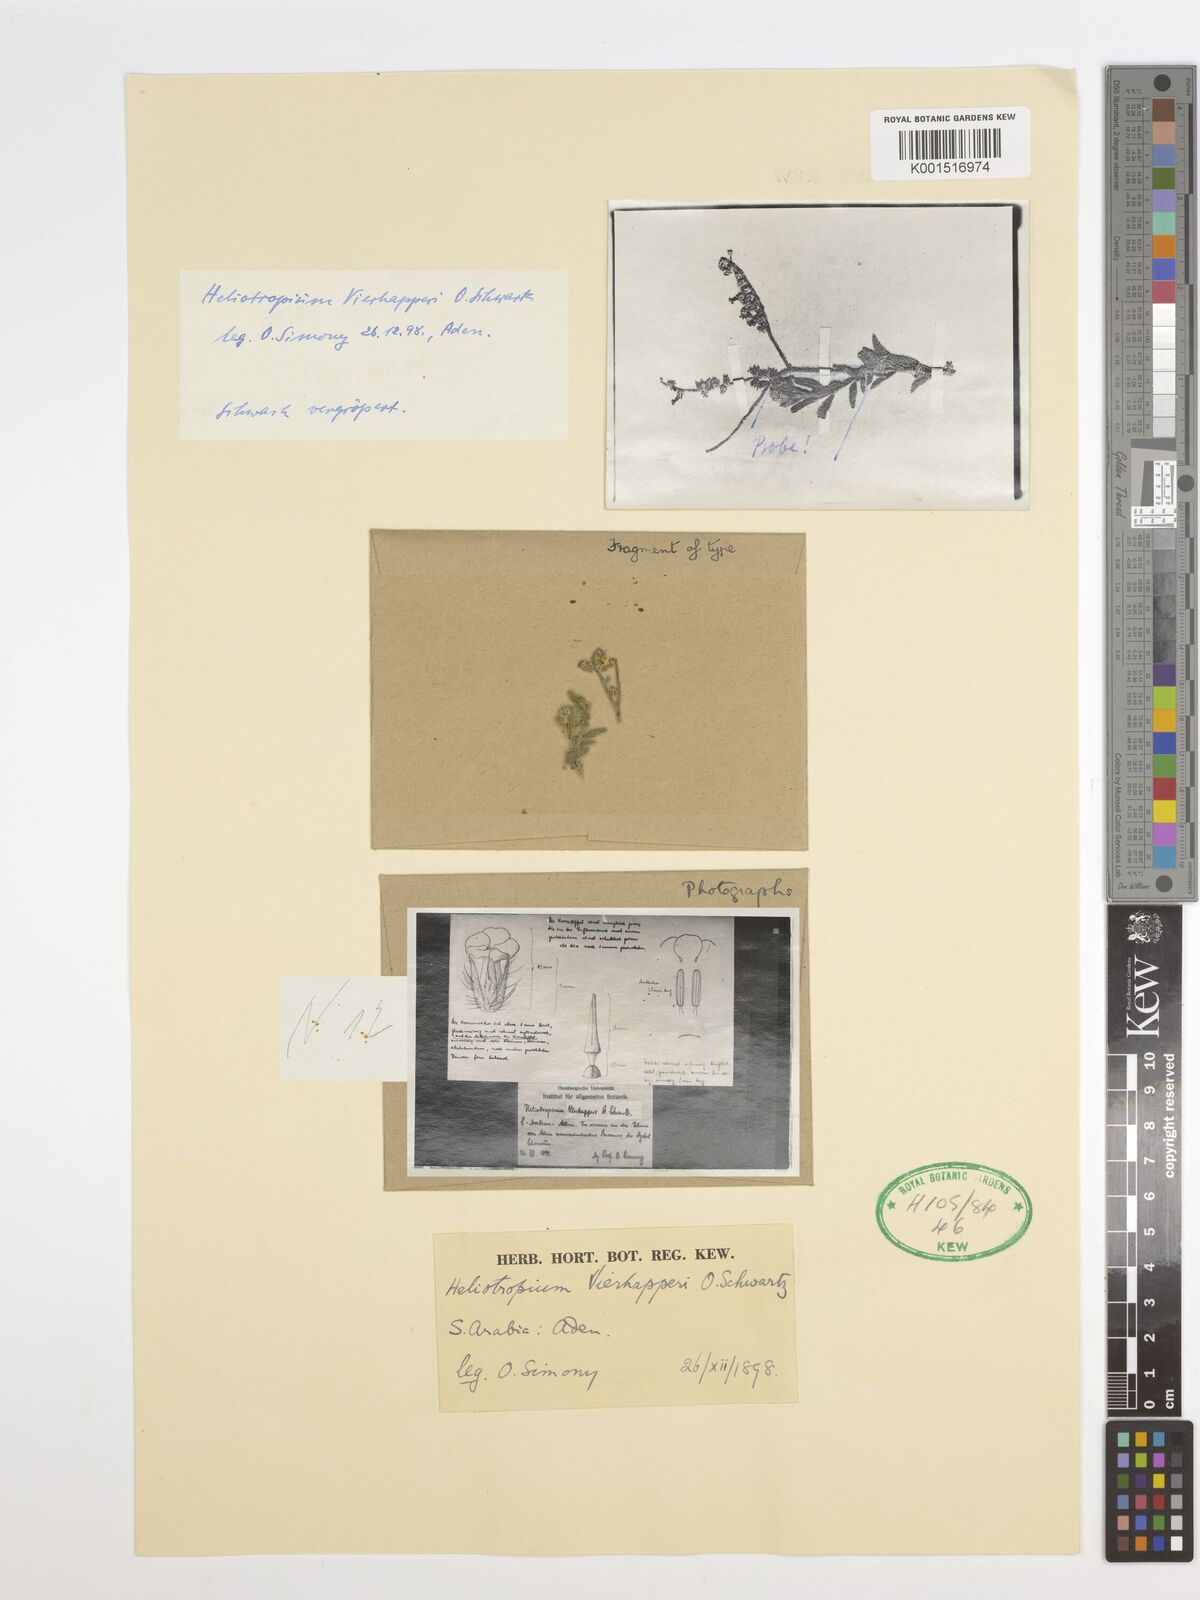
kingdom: Plantae
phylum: Tracheophyta
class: Magnoliopsida
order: Boraginales
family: Heliotropiaceae
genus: Heliotropium
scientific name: Heliotropium ophioglossum
